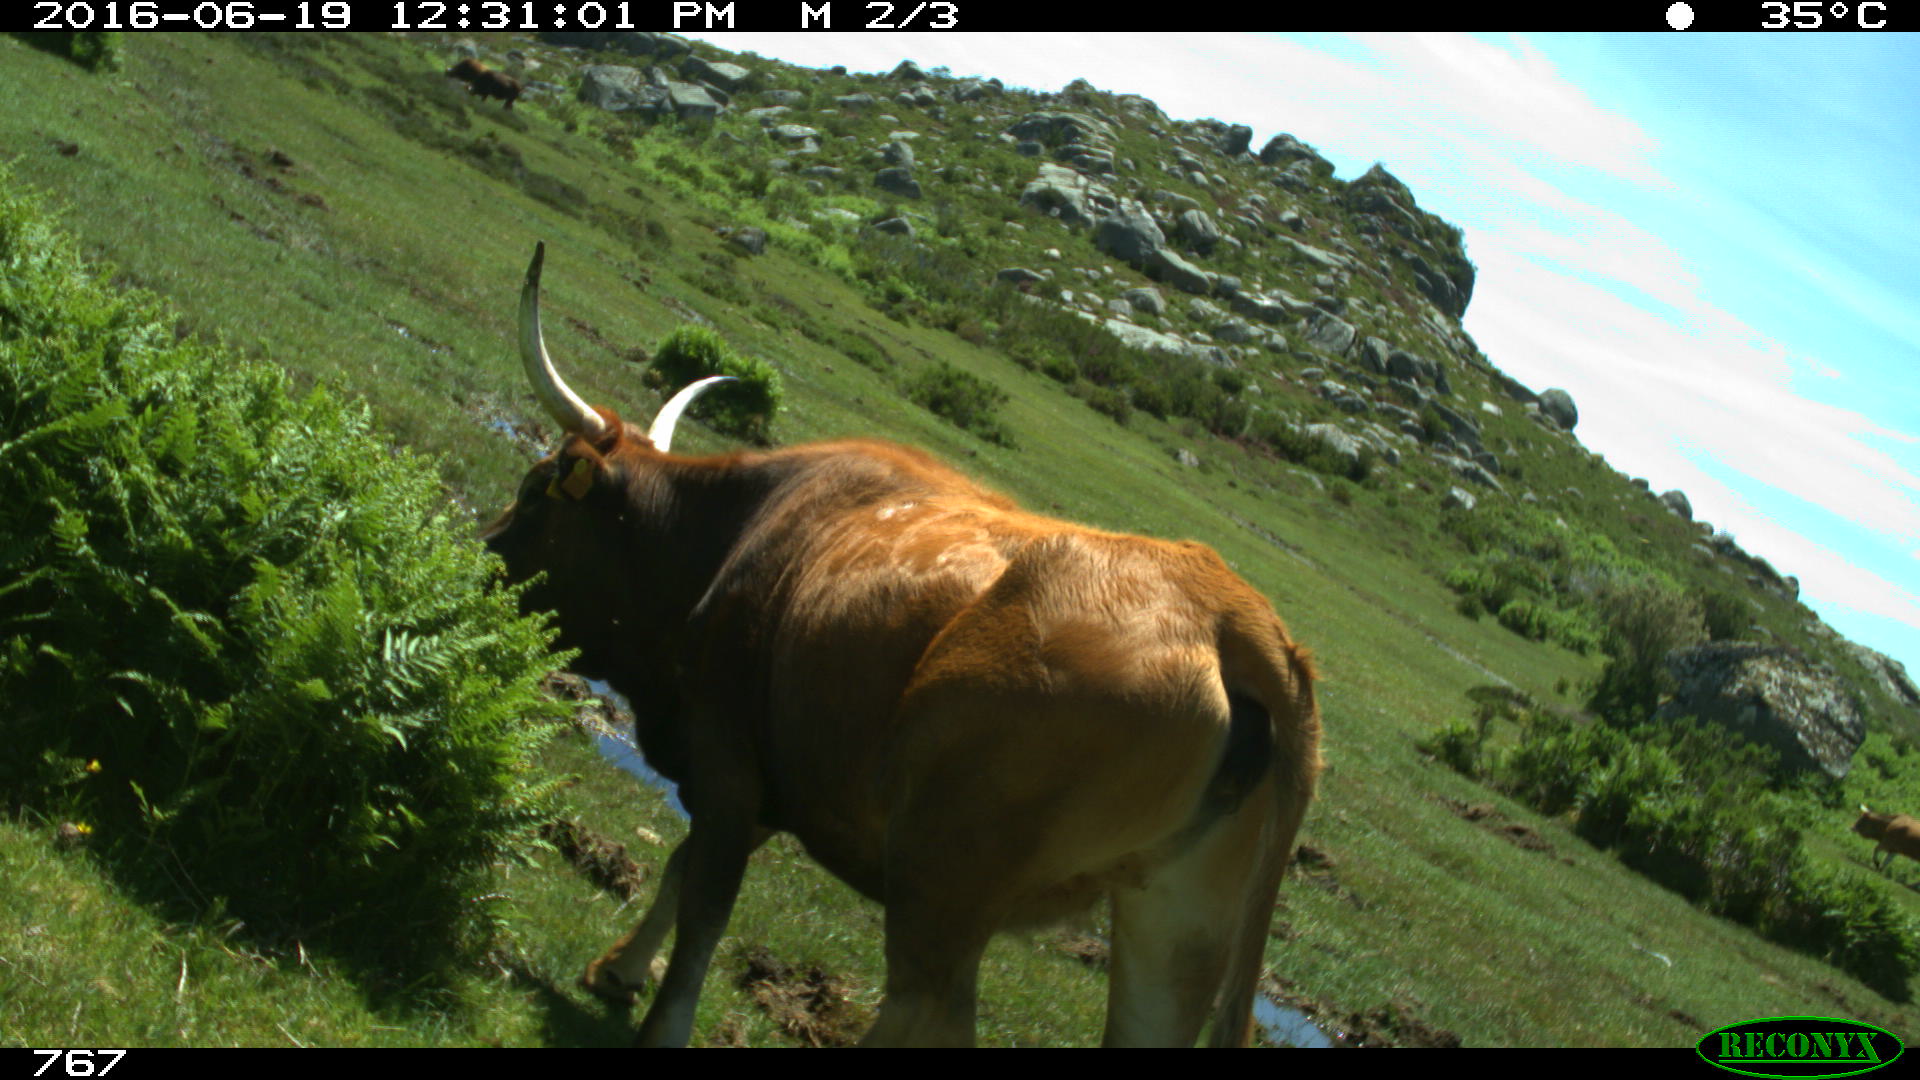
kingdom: Animalia
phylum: Chordata
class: Mammalia
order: Artiodactyla
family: Bovidae
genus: Bos
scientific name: Bos taurus
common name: Domesticated cattle
